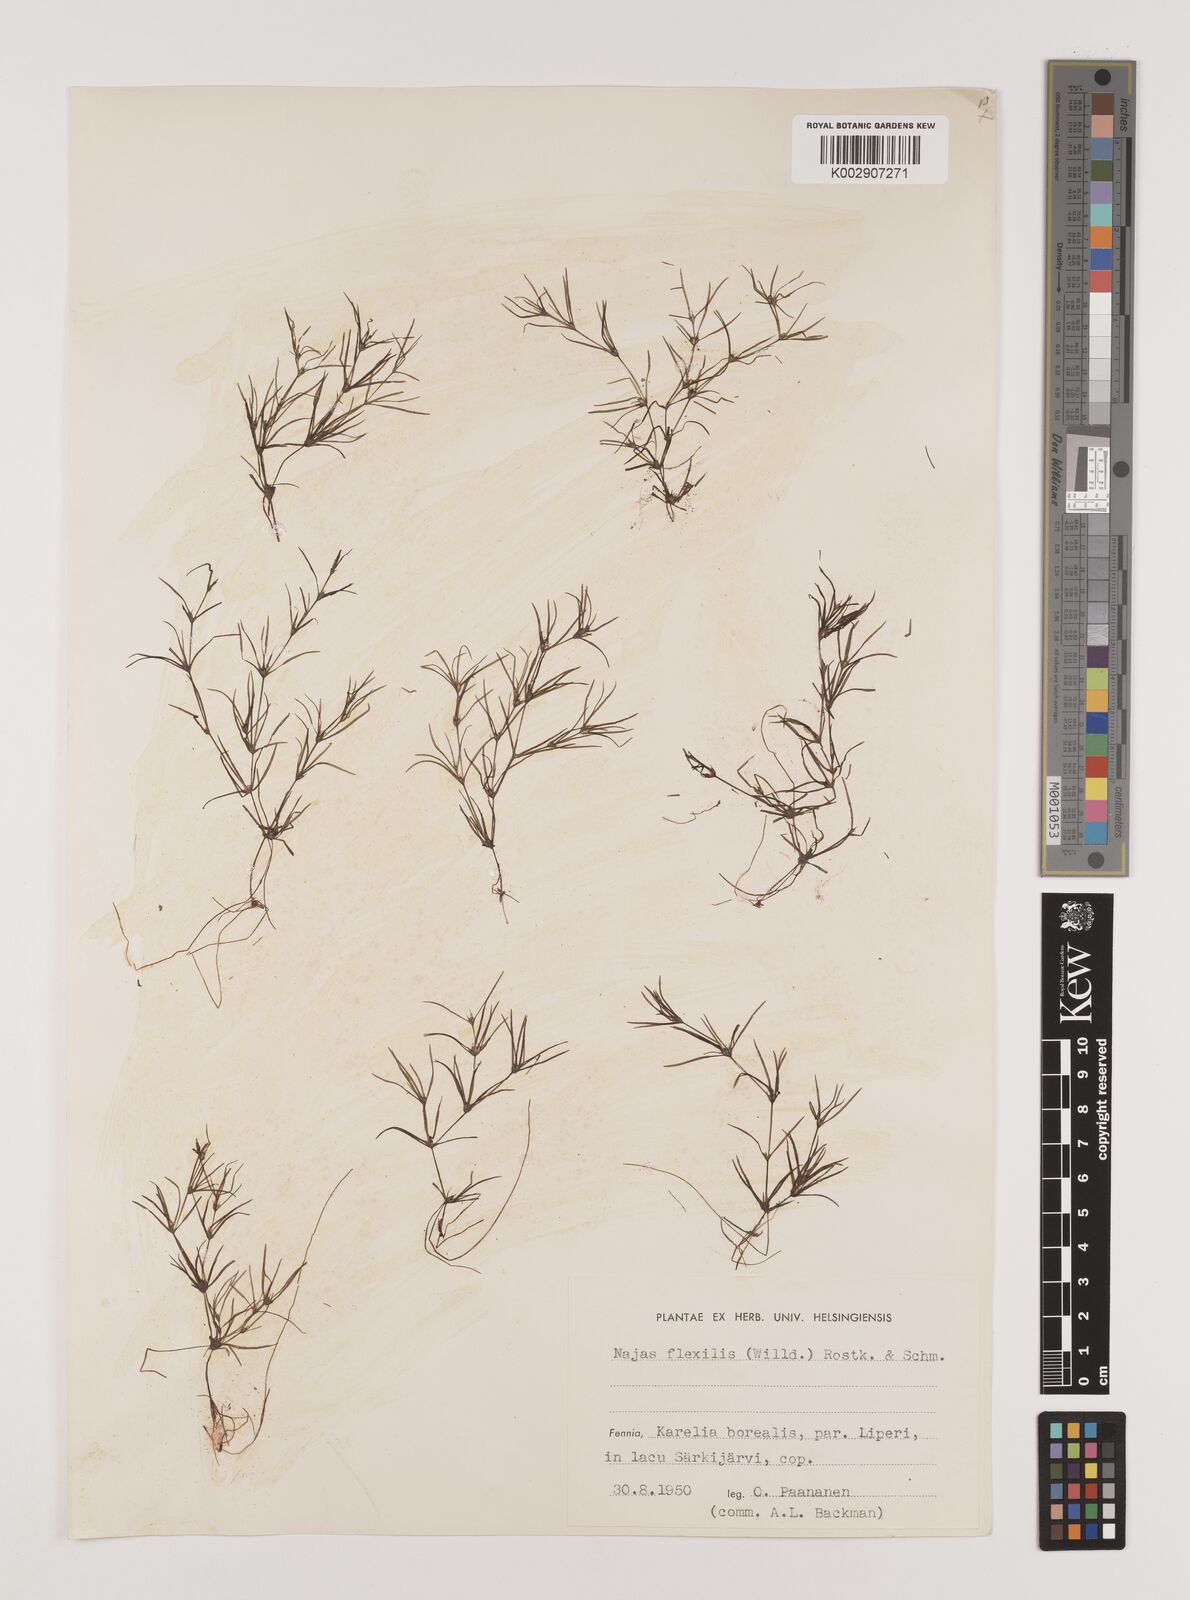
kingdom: Plantae
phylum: Tracheophyta
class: Liliopsida
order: Alismatales
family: Hydrocharitaceae
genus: Najas
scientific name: Najas flexilis
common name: Slender naiad
